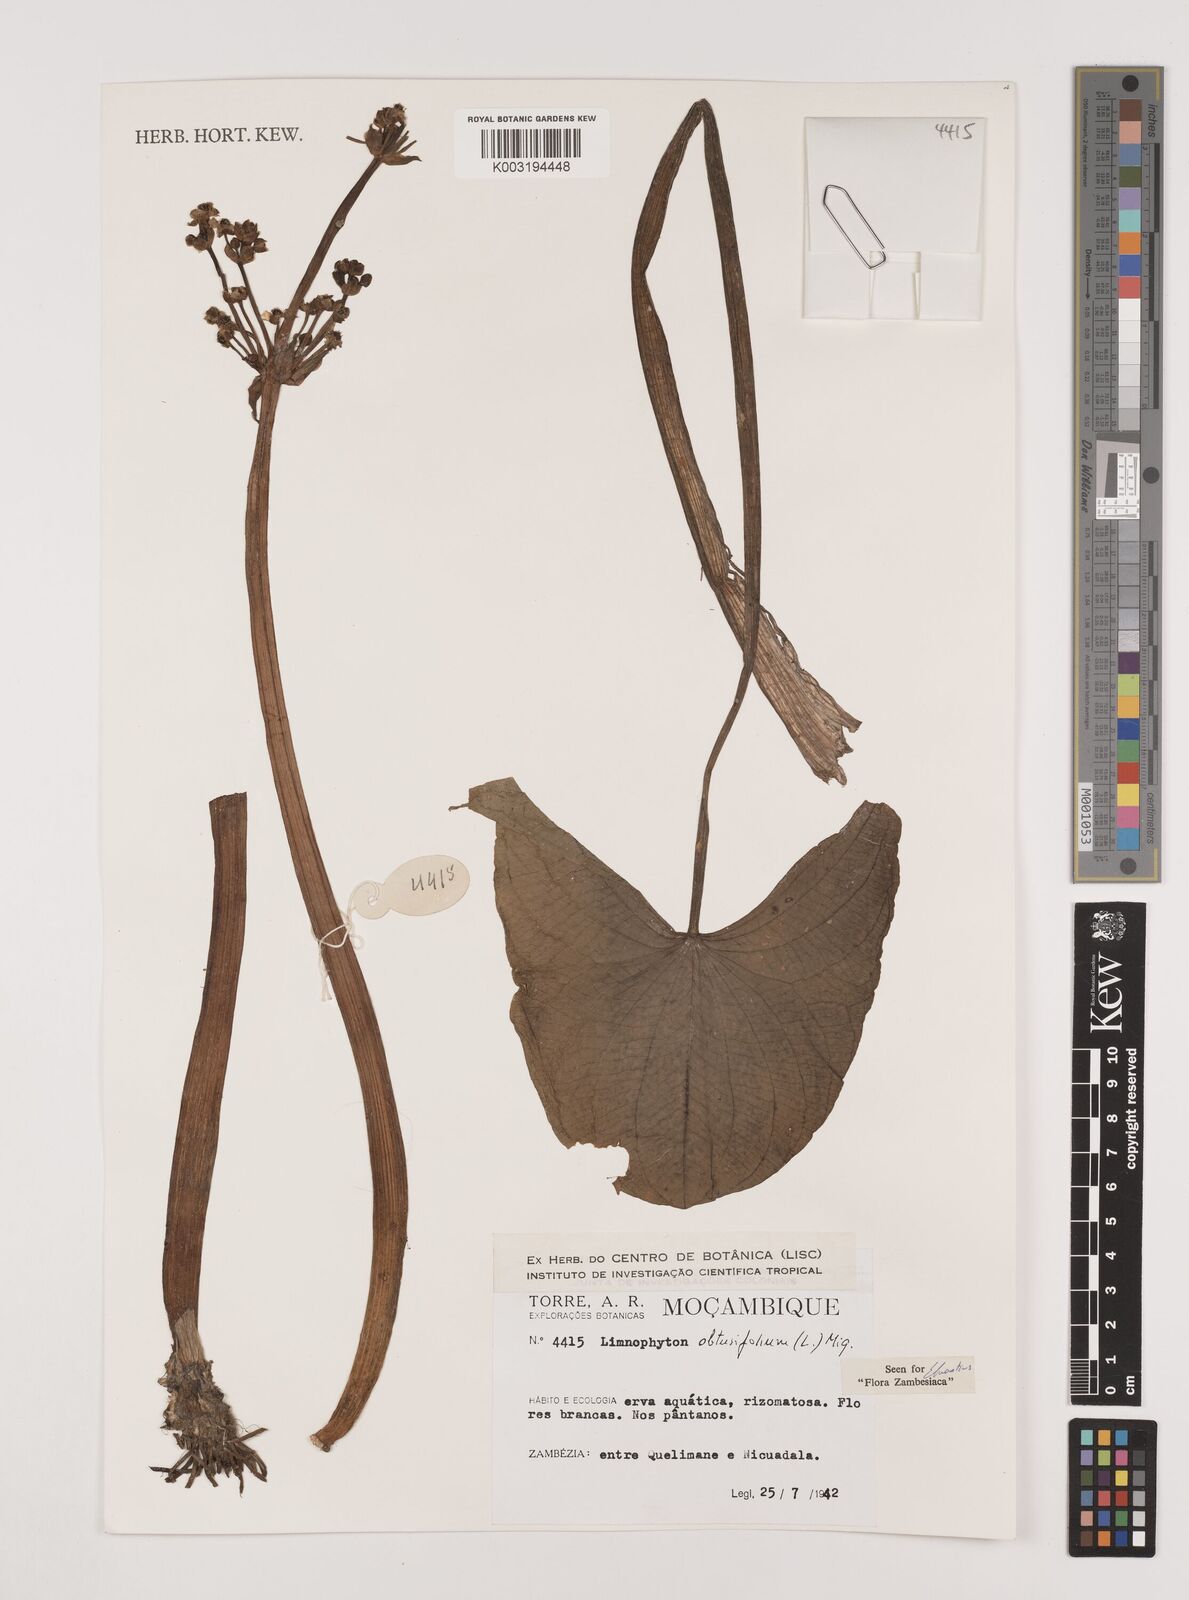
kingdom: Plantae
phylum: Tracheophyta
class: Liliopsida
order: Alismatales
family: Alismataceae
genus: Limnophyton
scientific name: Limnophyton obtusifolium
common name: Arrow head
